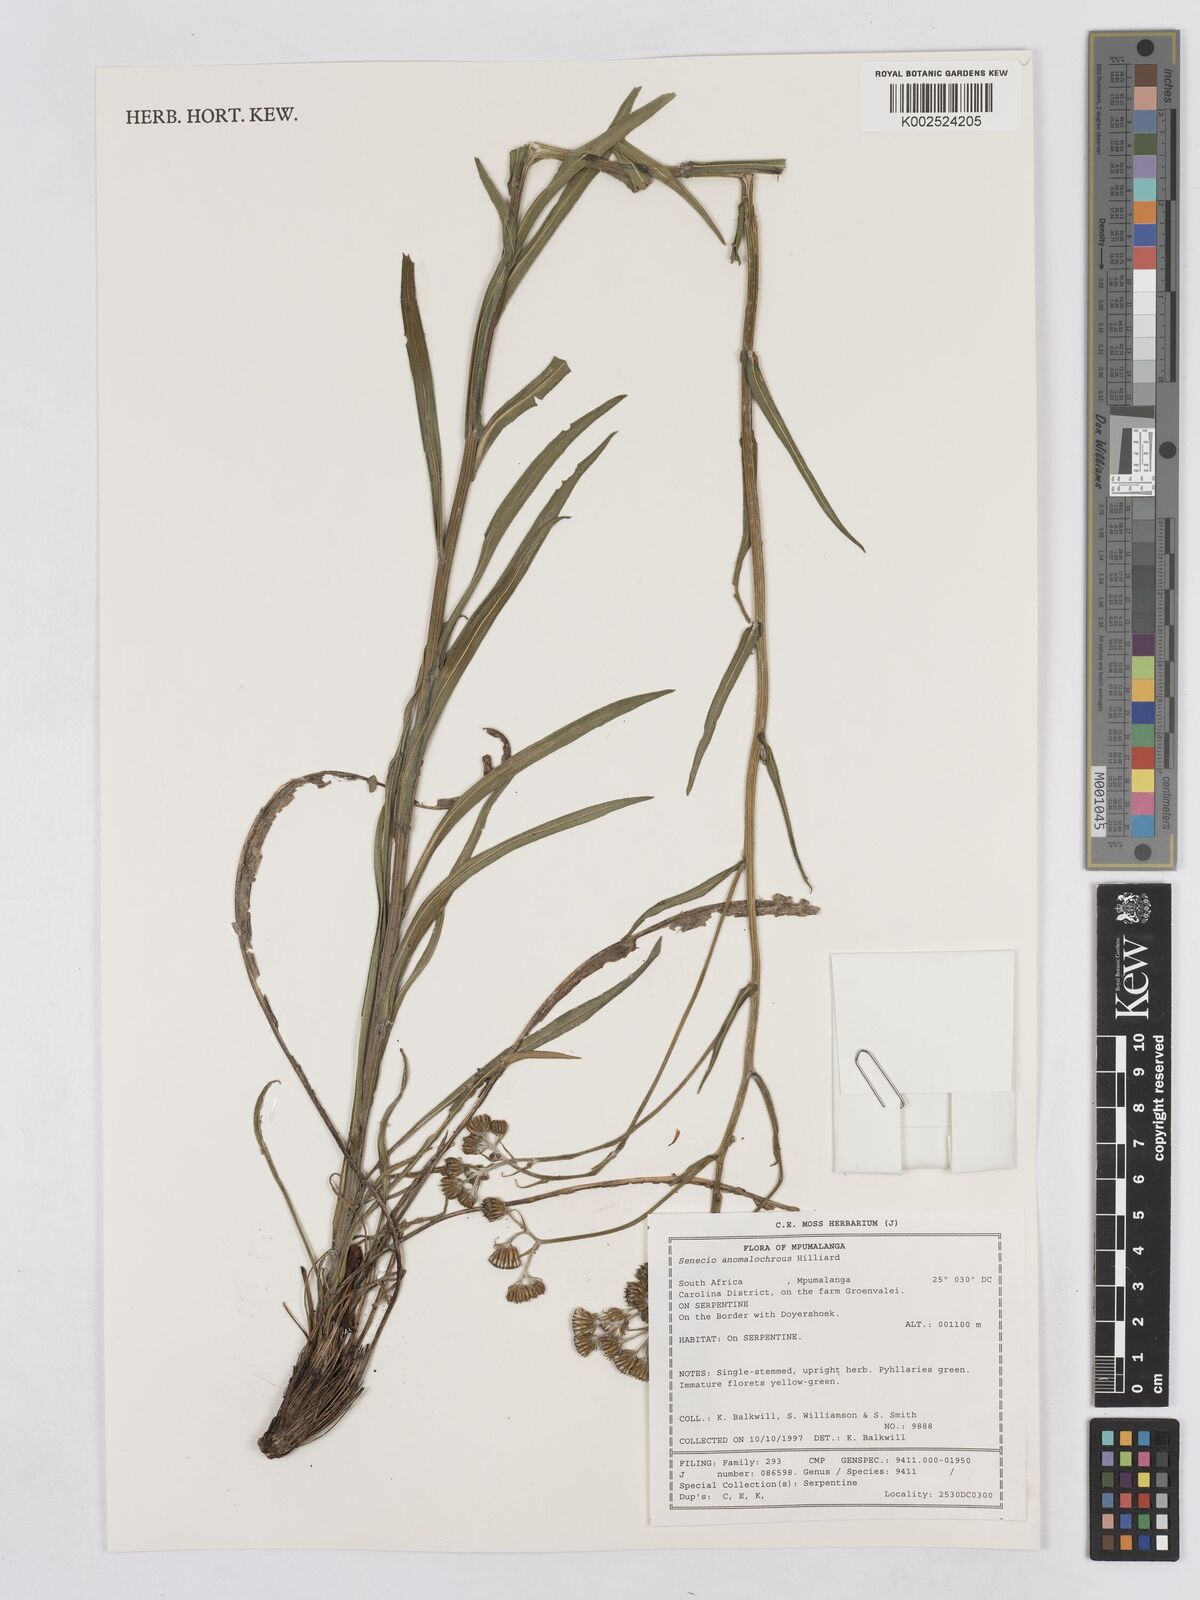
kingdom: Plantae
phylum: Tracheophyta
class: Magnoliopsida
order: Asterales
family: Asteraceae
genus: Senecio
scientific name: Senecio anomalochrous
